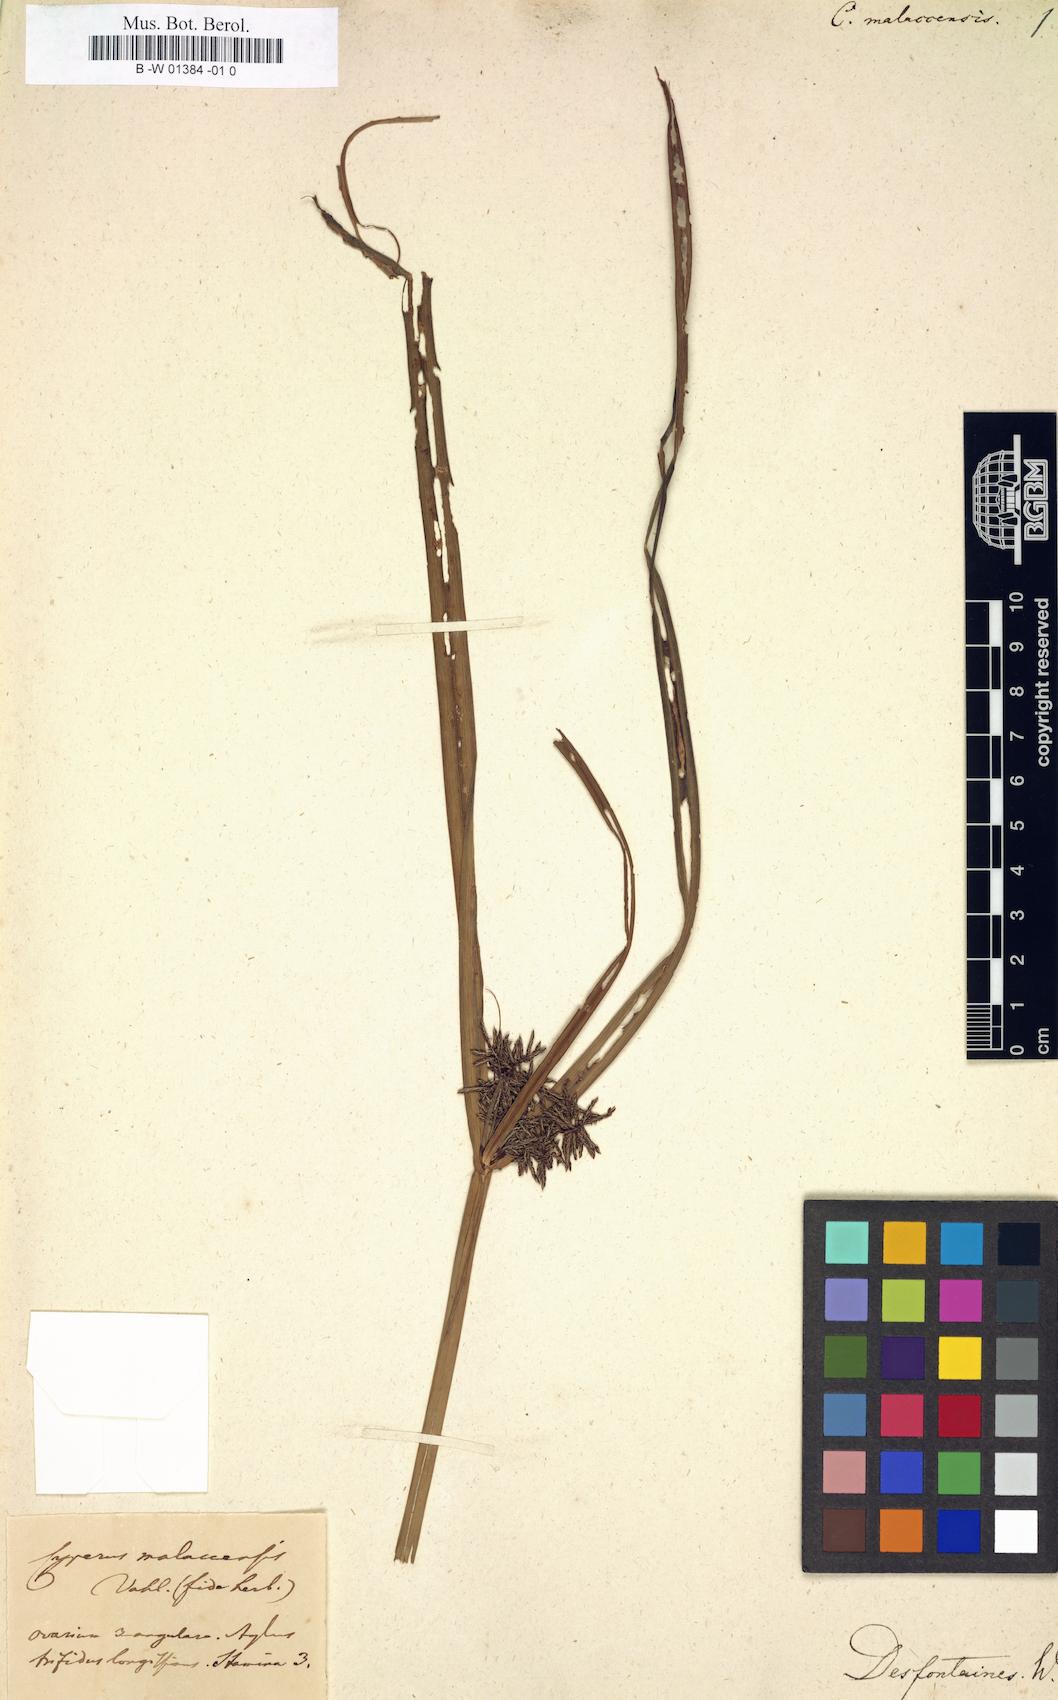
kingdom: Plantae
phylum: Tracheophyta
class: Liliopsida
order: Poales
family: Cyperaceae
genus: Cyperus
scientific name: Cyperus malaccensis
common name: Shichito matgrass
